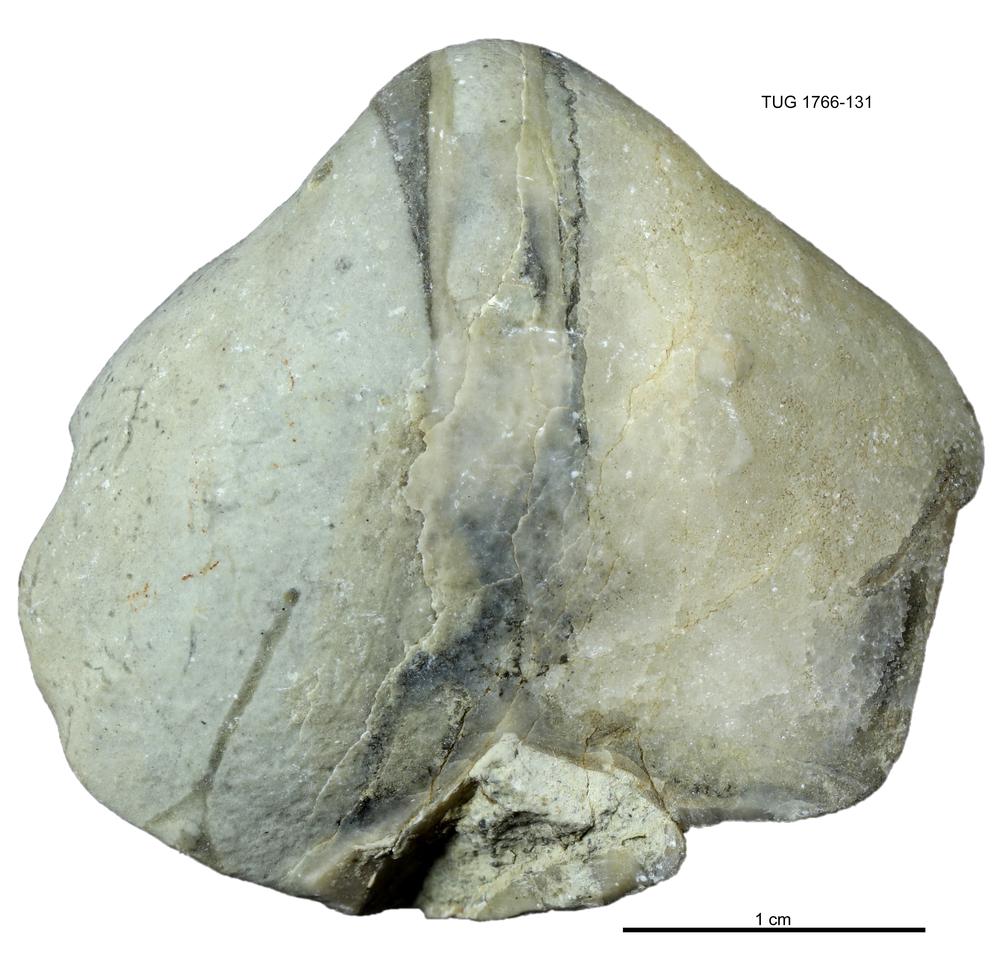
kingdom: Animalia
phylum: Brachiopoda
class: Rhynchonellata
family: Porambonitidae
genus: Porambonites
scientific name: Porambonites
